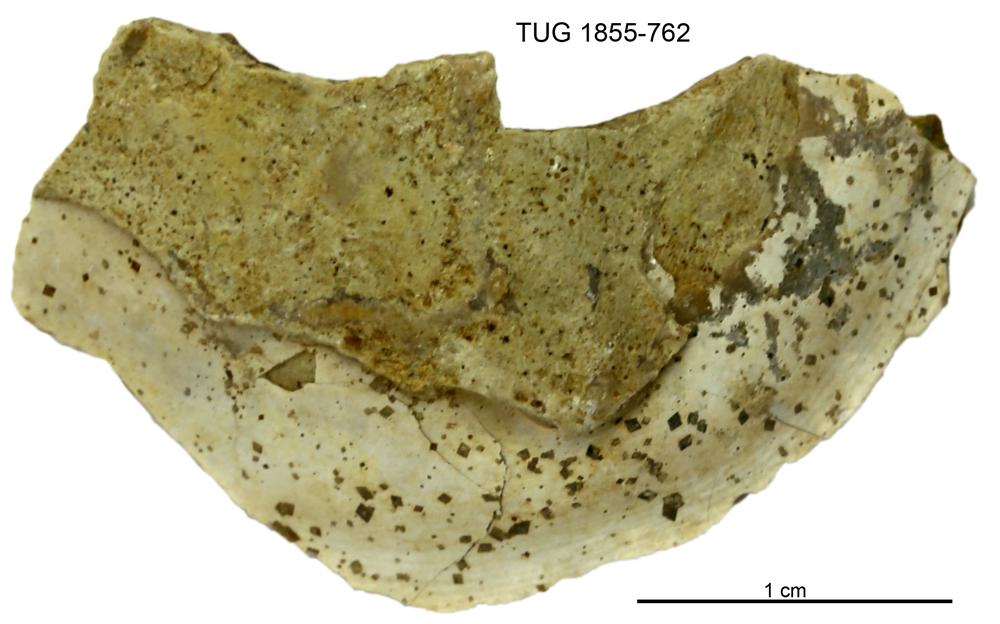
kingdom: Animalia
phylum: Arthropoda
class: Trilobita
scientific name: Trilobita
